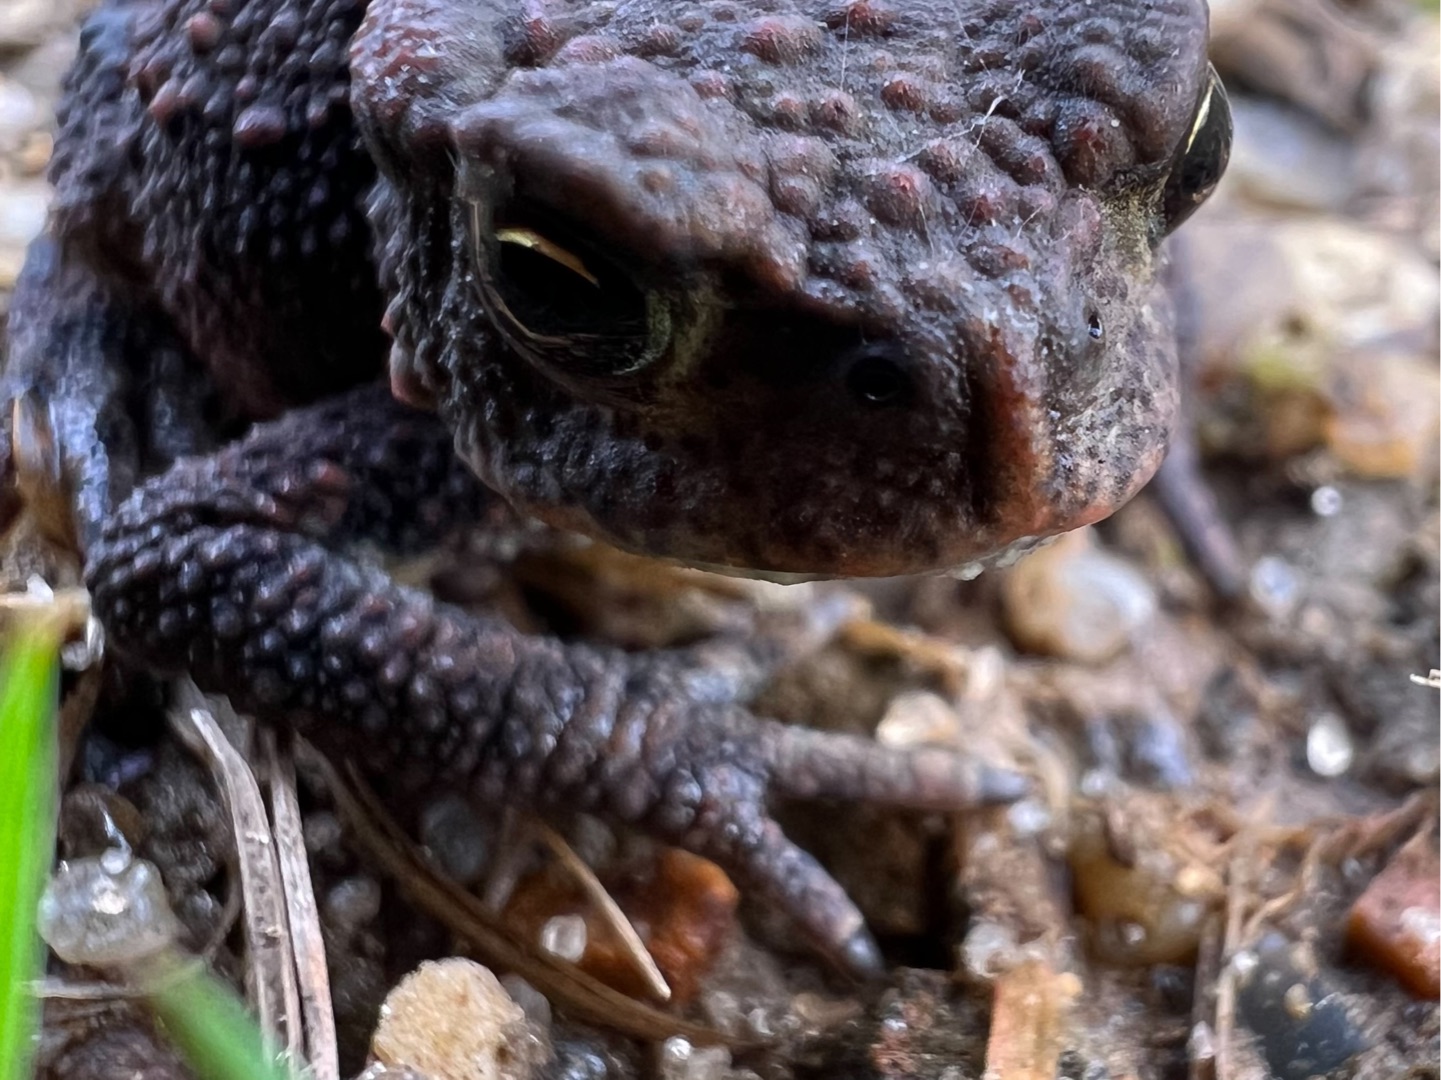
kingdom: Animalia
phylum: Chordata
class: Amphibia
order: Anura
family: Bufonidae
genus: Bufo
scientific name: Bufo bufo
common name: Skrubtudse
